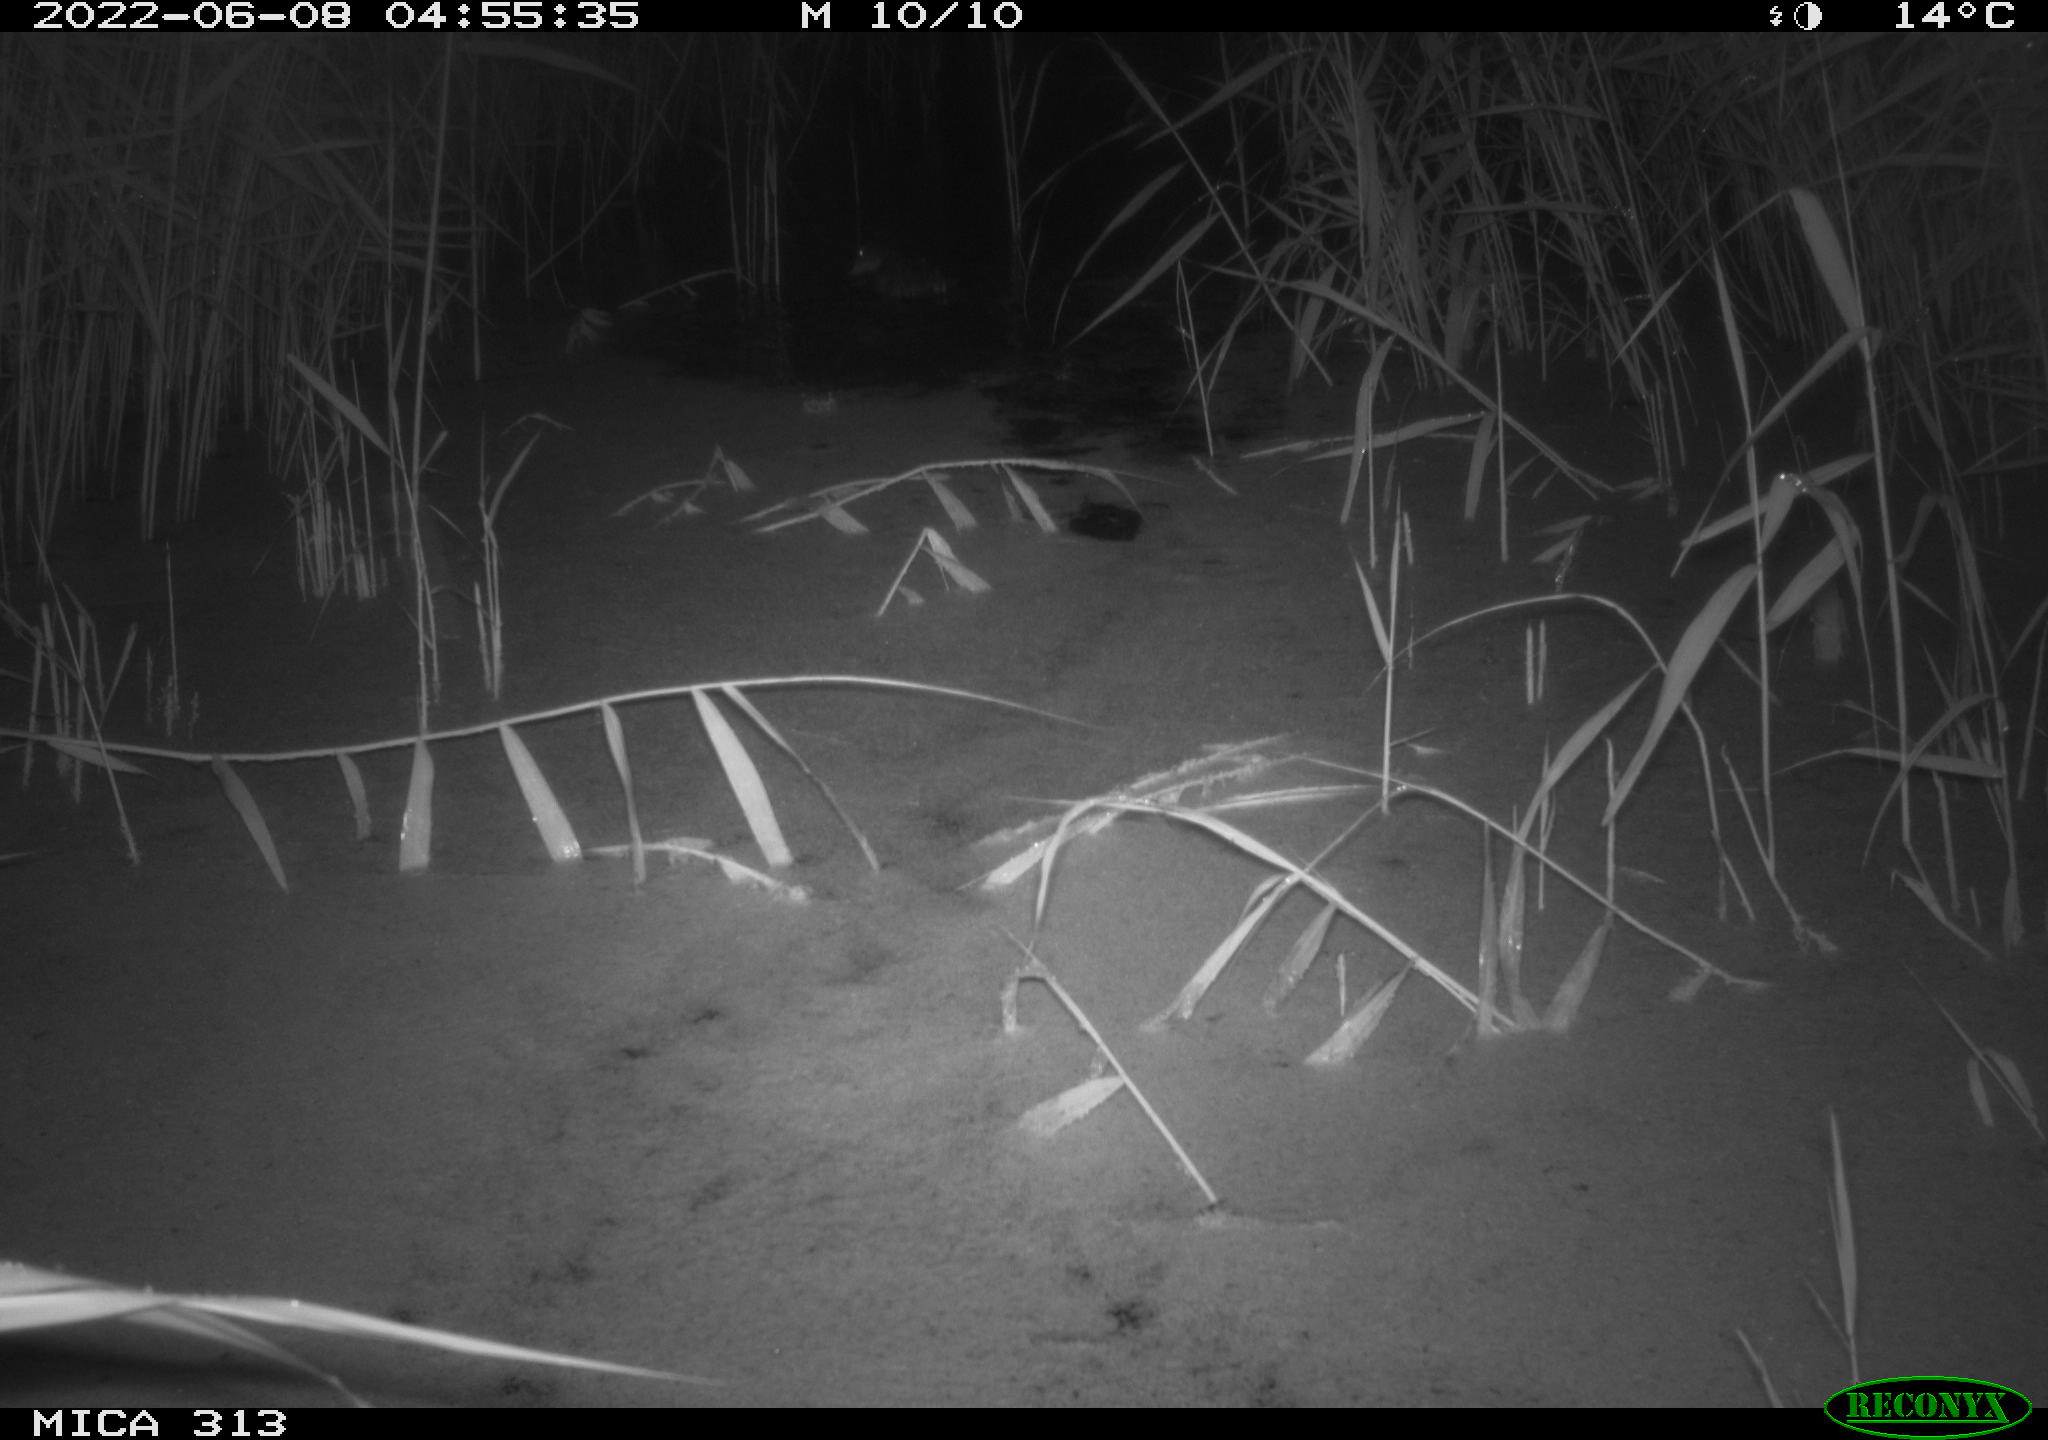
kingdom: Animalia
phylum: Chordata
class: Aves
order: Anseriformes
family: Anatidae
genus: Anas
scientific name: Anas platyrhynchos
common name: Mallard
